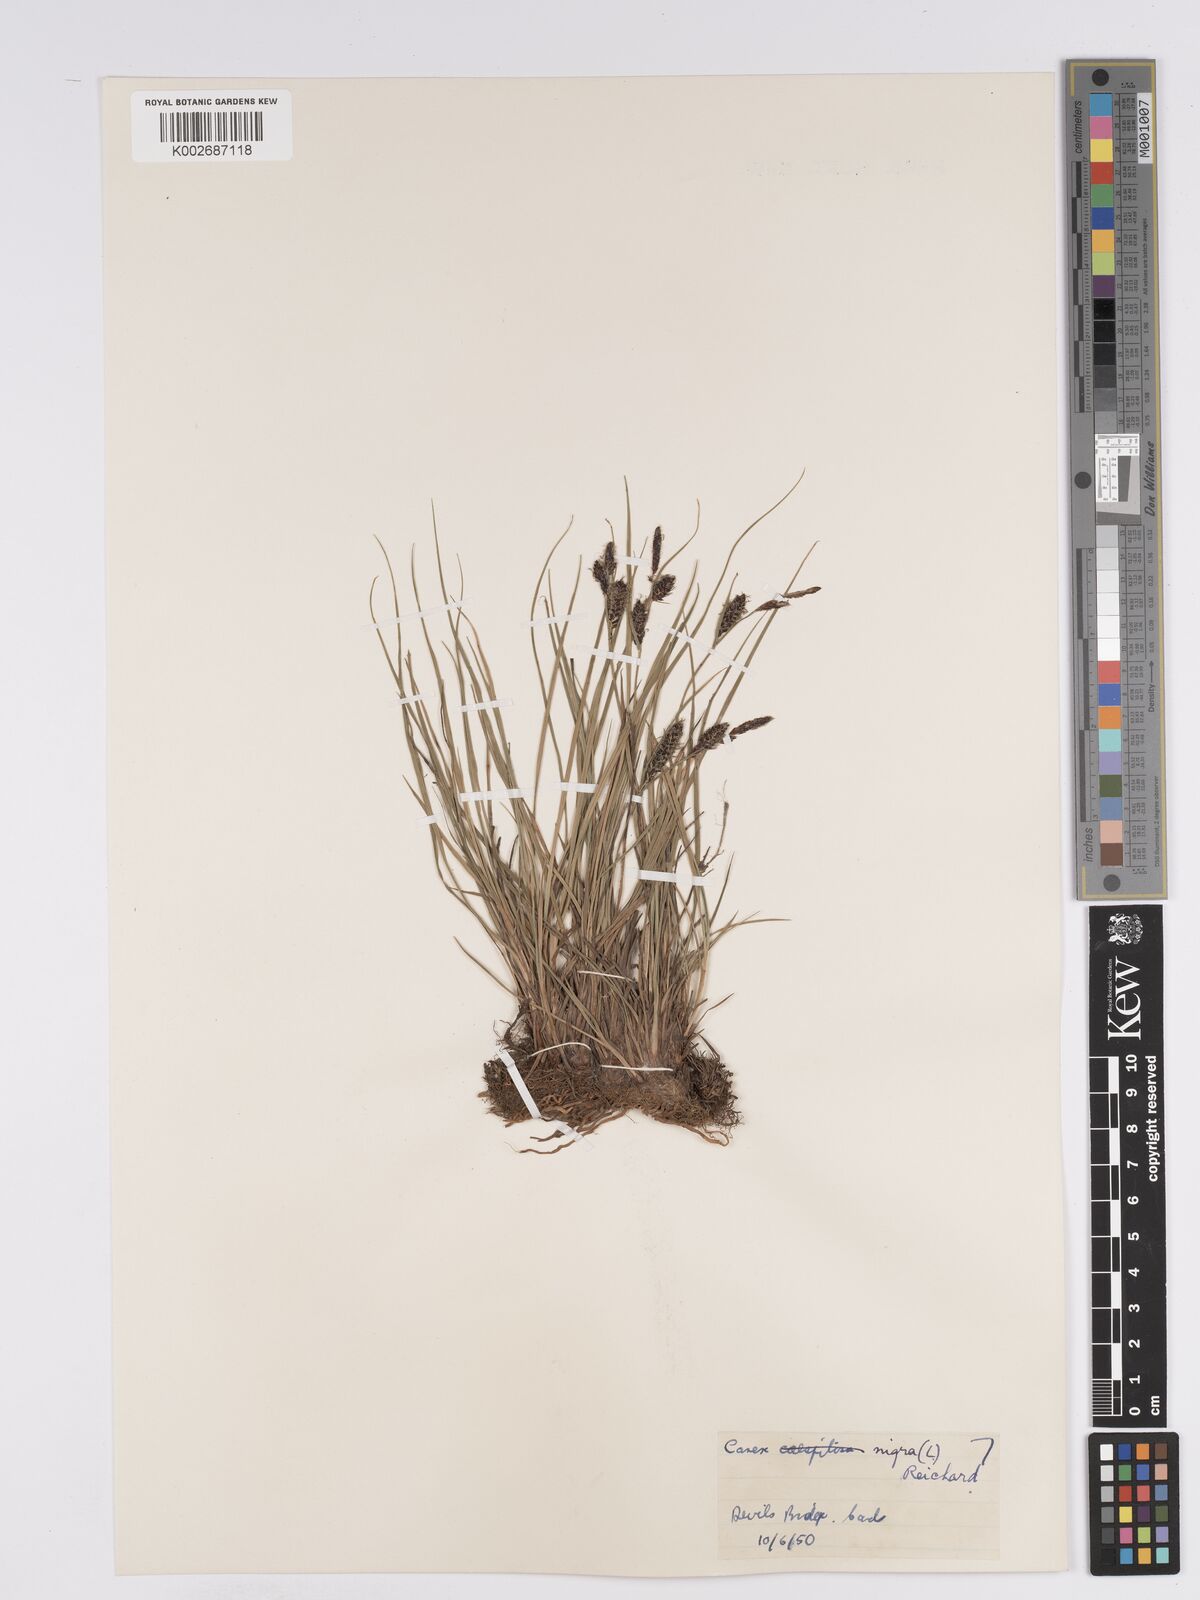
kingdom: Plantae
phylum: Tracheophyta
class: Liliopsida
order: Poales
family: Cyperaceae
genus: Carex
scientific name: Carex nigra
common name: Common sedge
